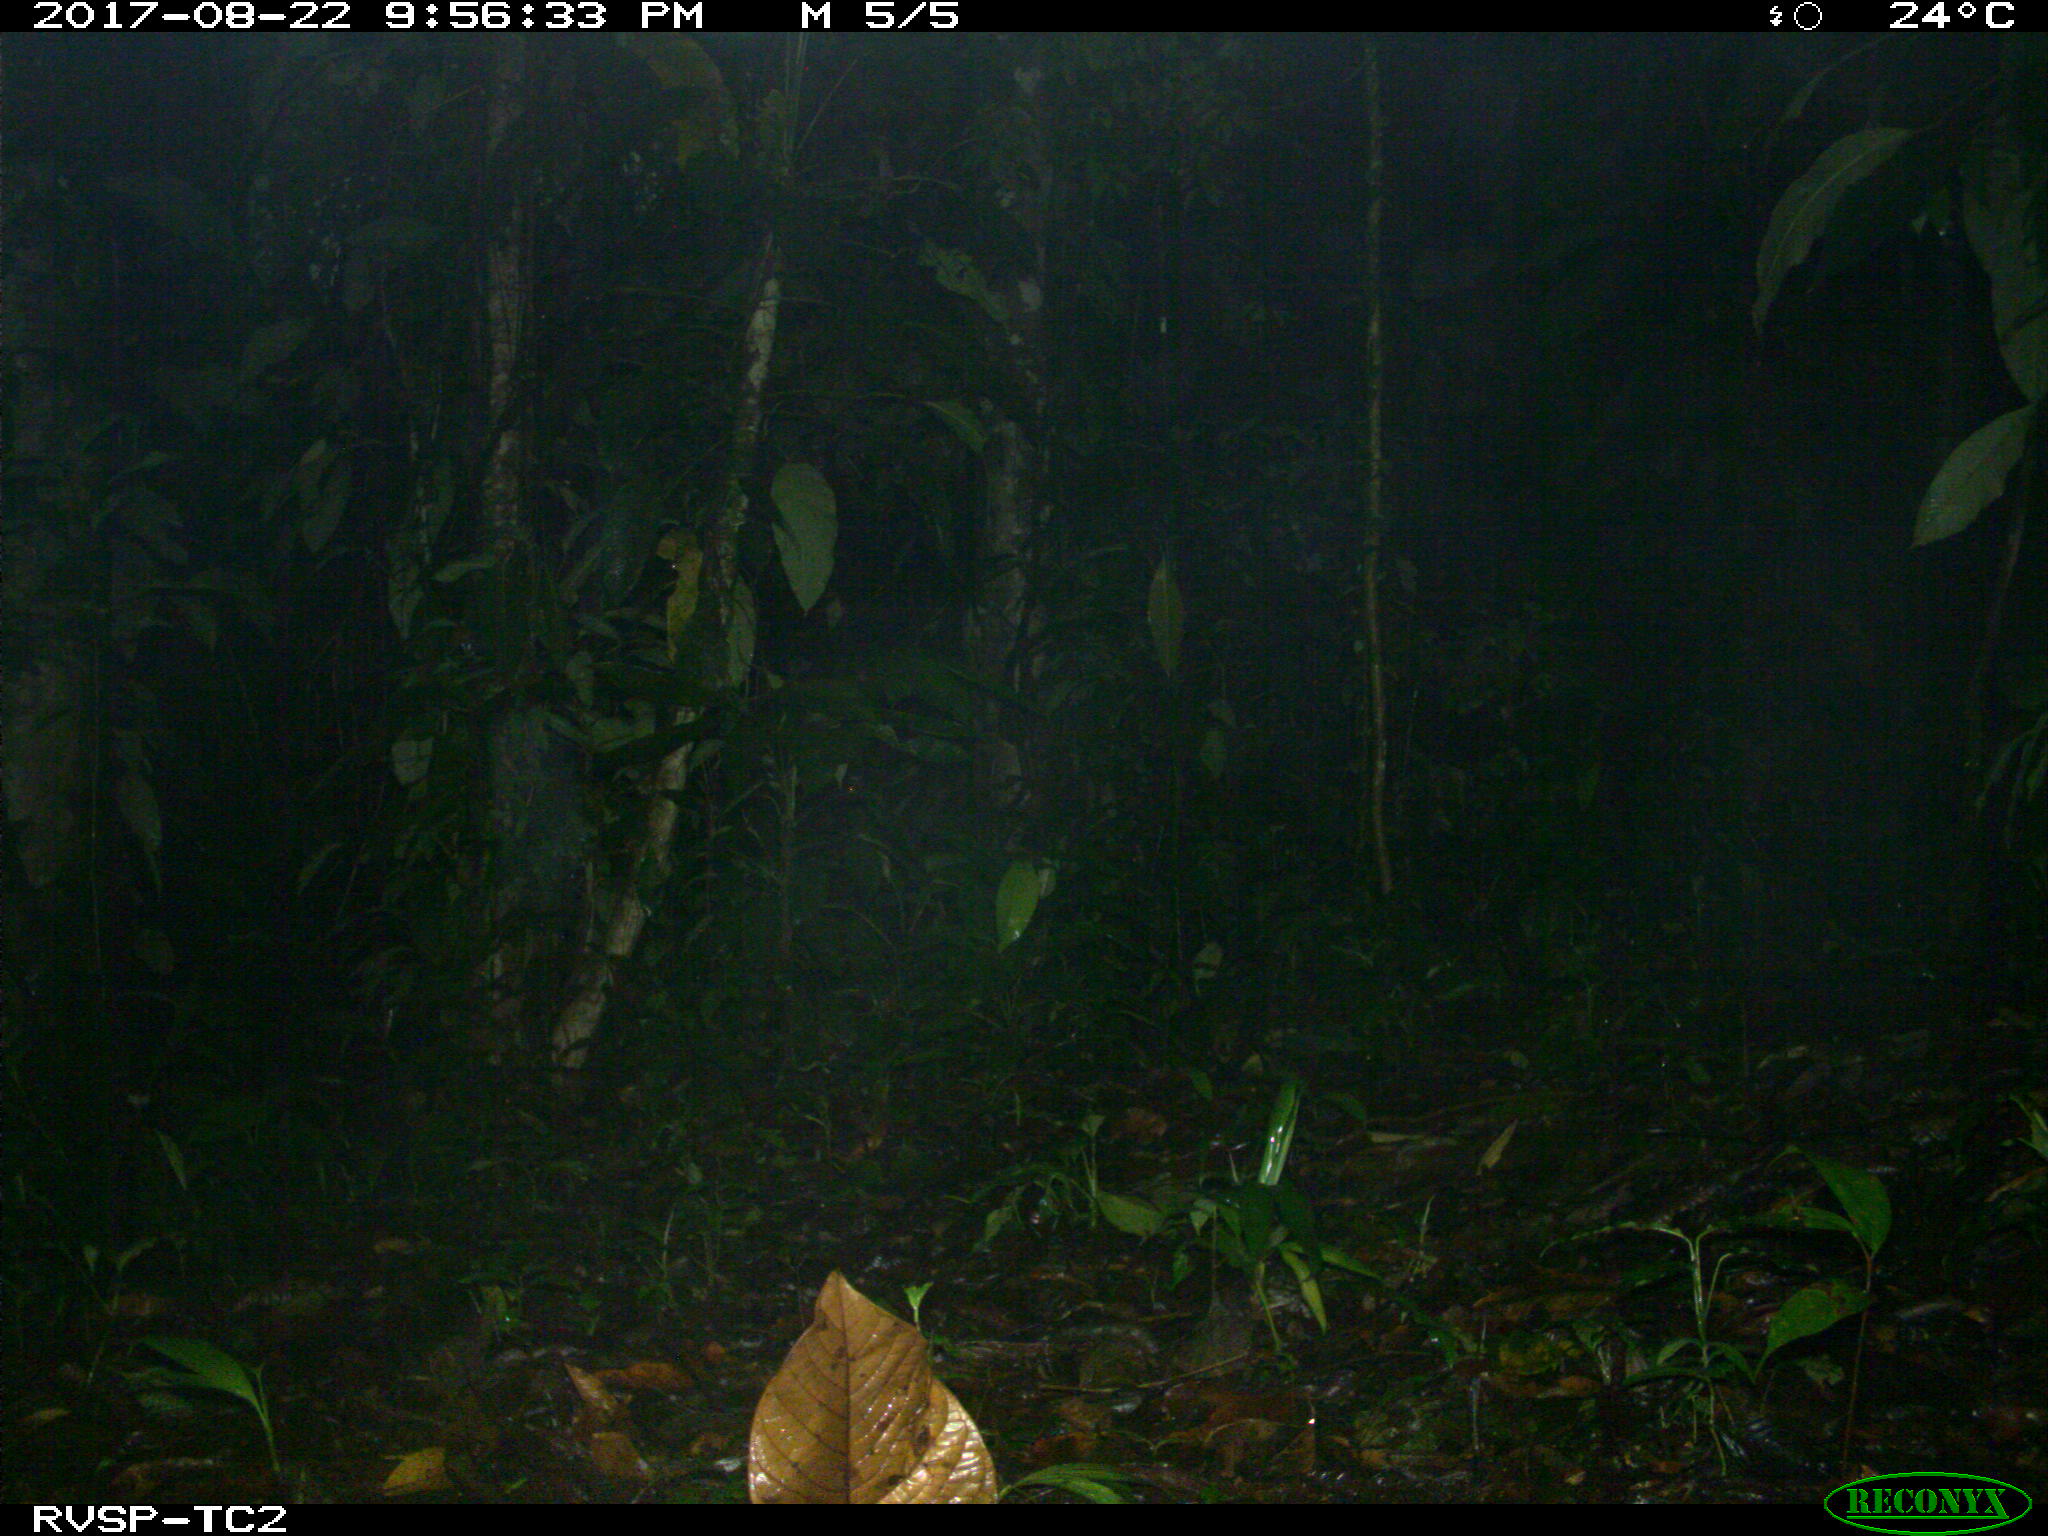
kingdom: Animalia
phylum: Chordata
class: Mammalia
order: Rodentia
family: Cuniculidae
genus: Cuniculus
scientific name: Cuniculus paca
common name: Lowland paca
